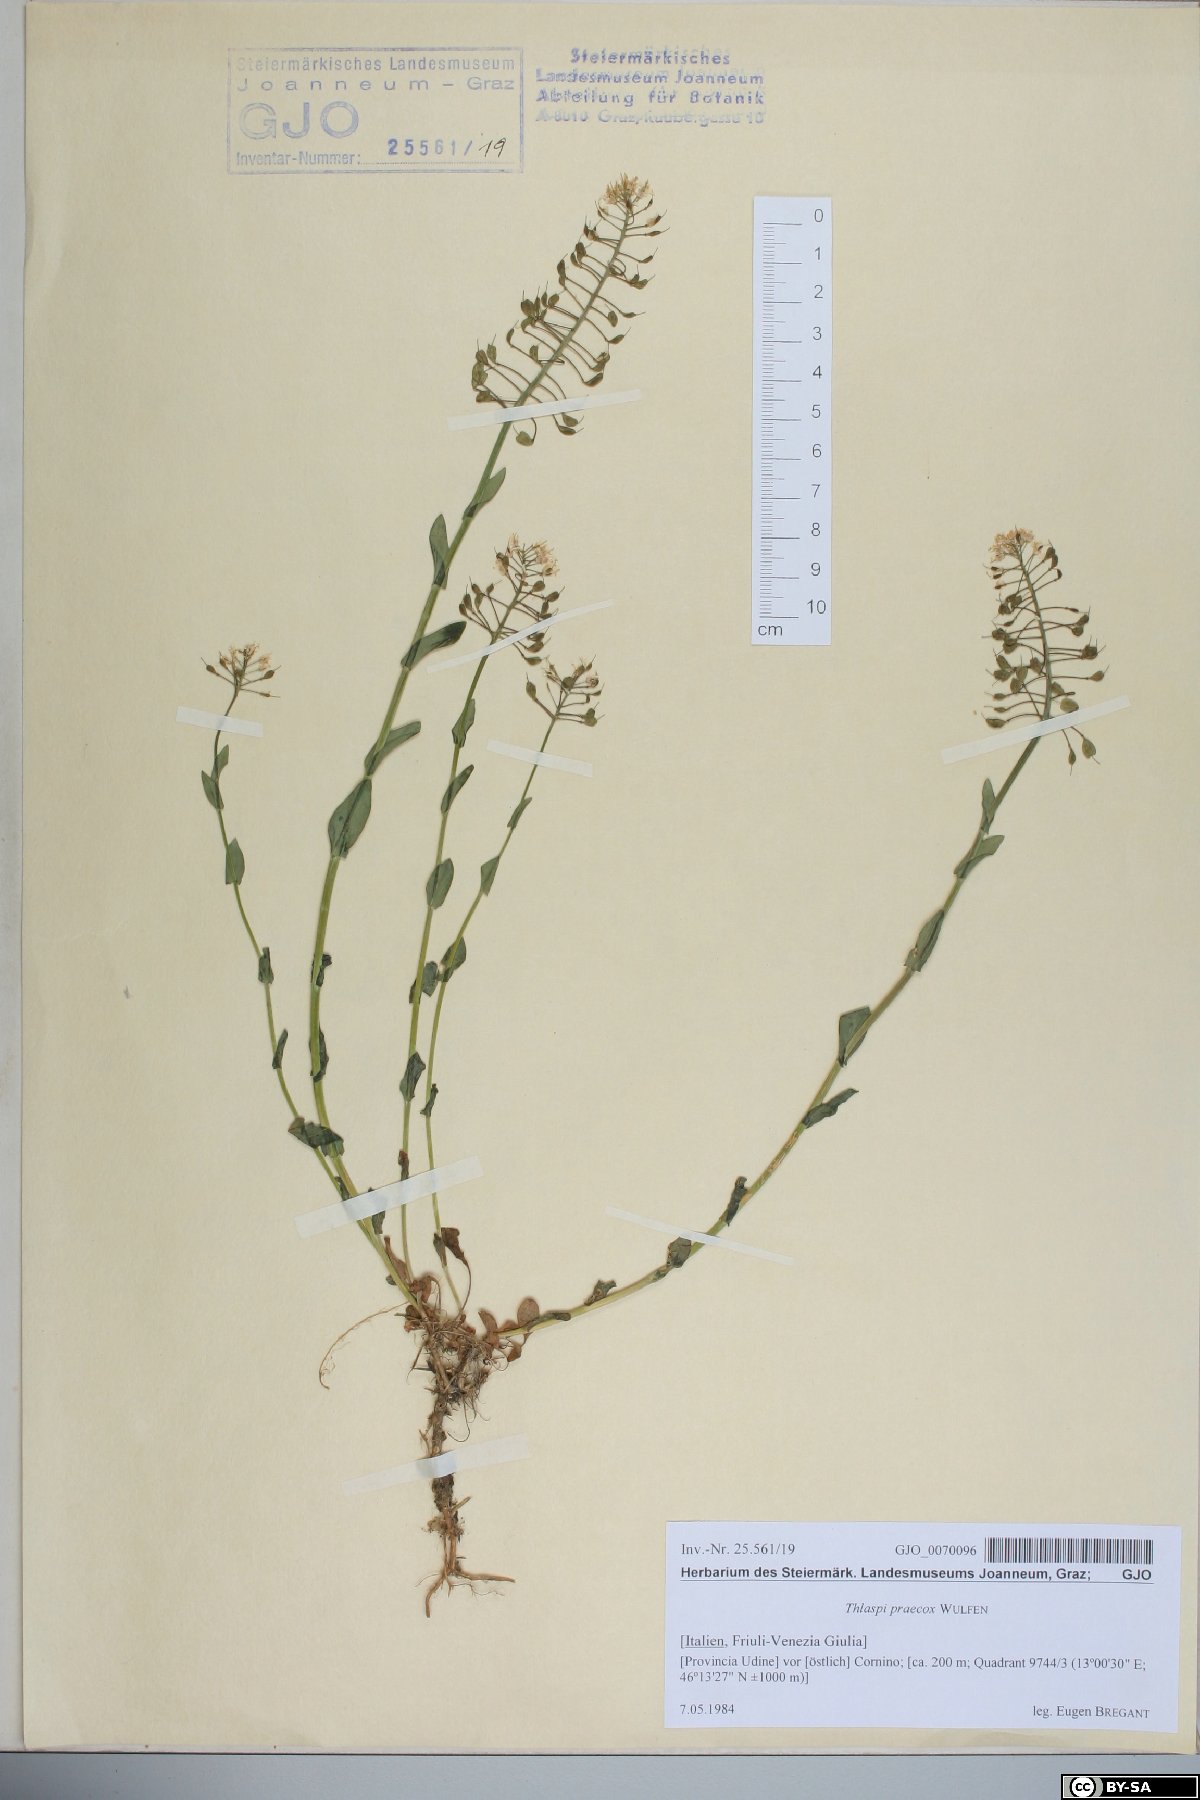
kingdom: Plantae
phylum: Tracheophyta
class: Magnoliopsida
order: Brassicales
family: Brassicaceae
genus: Noccaea
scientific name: Noccaea praecox
